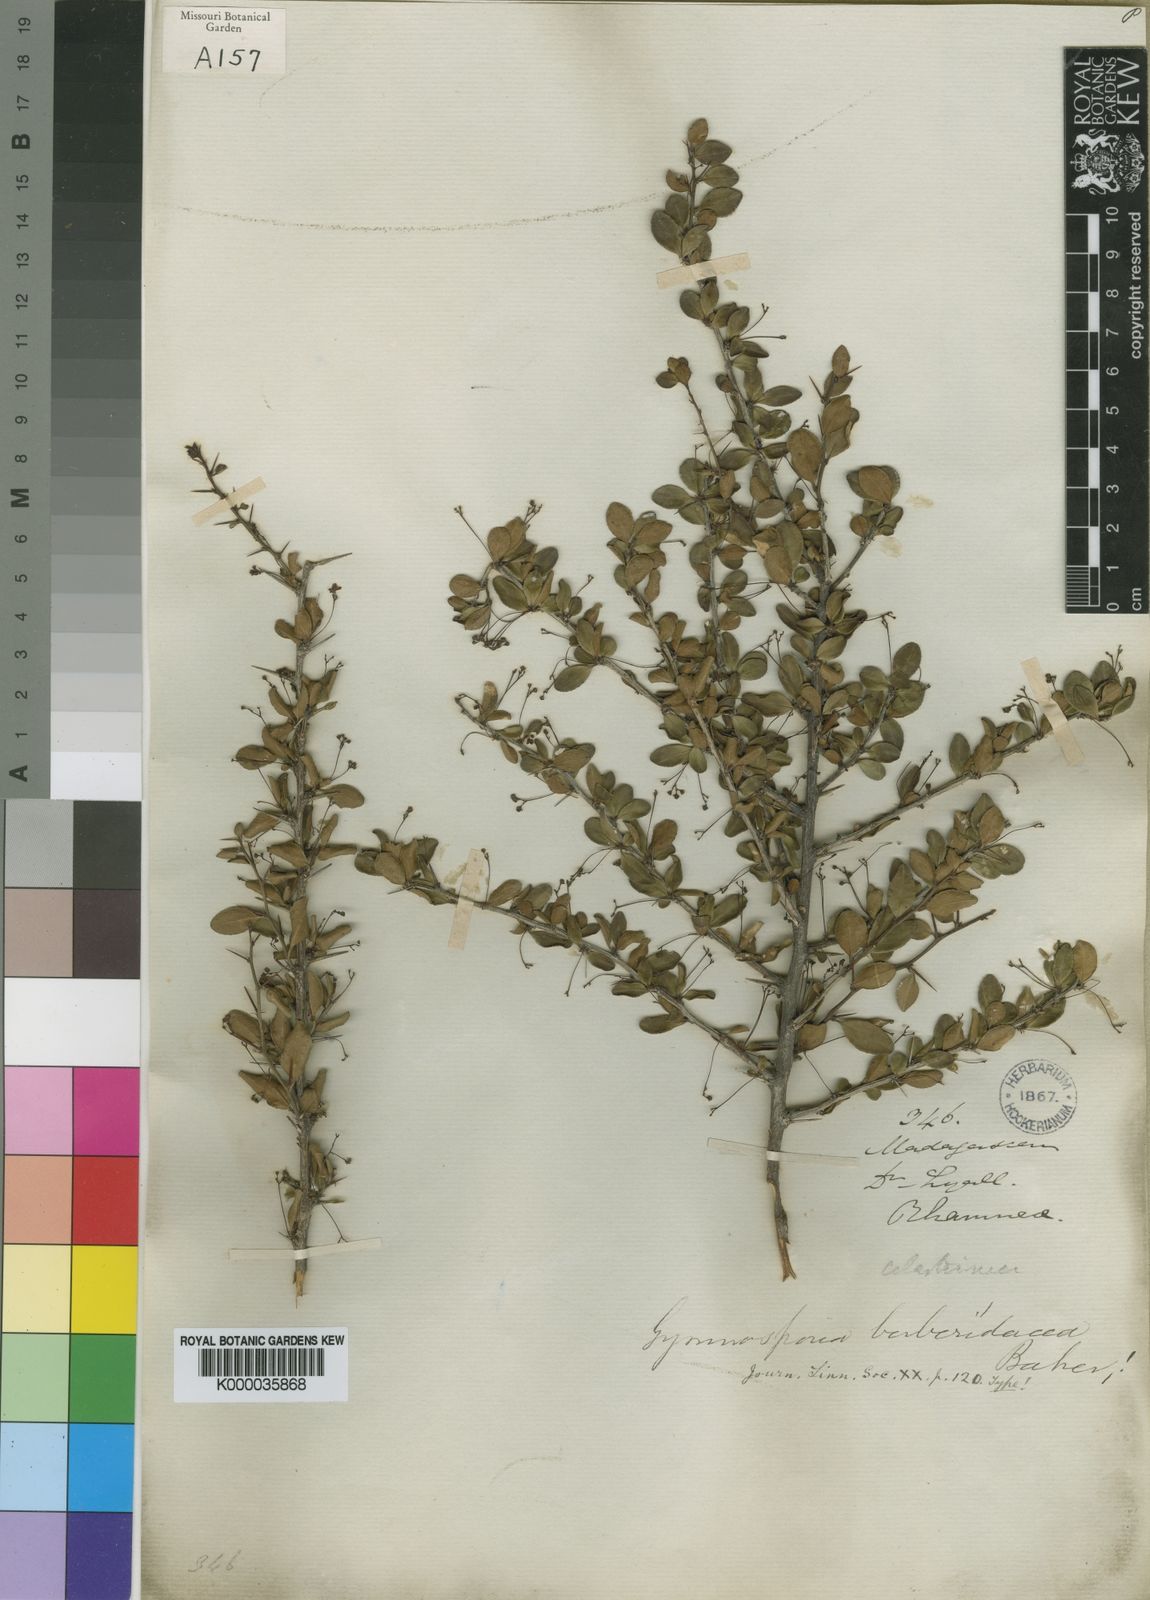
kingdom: Plantae
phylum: Tracheophyta
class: Magnoliopsida
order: Celastrales
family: Celastraceae
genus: Gymnosporia
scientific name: Gymnosporia leptopus
